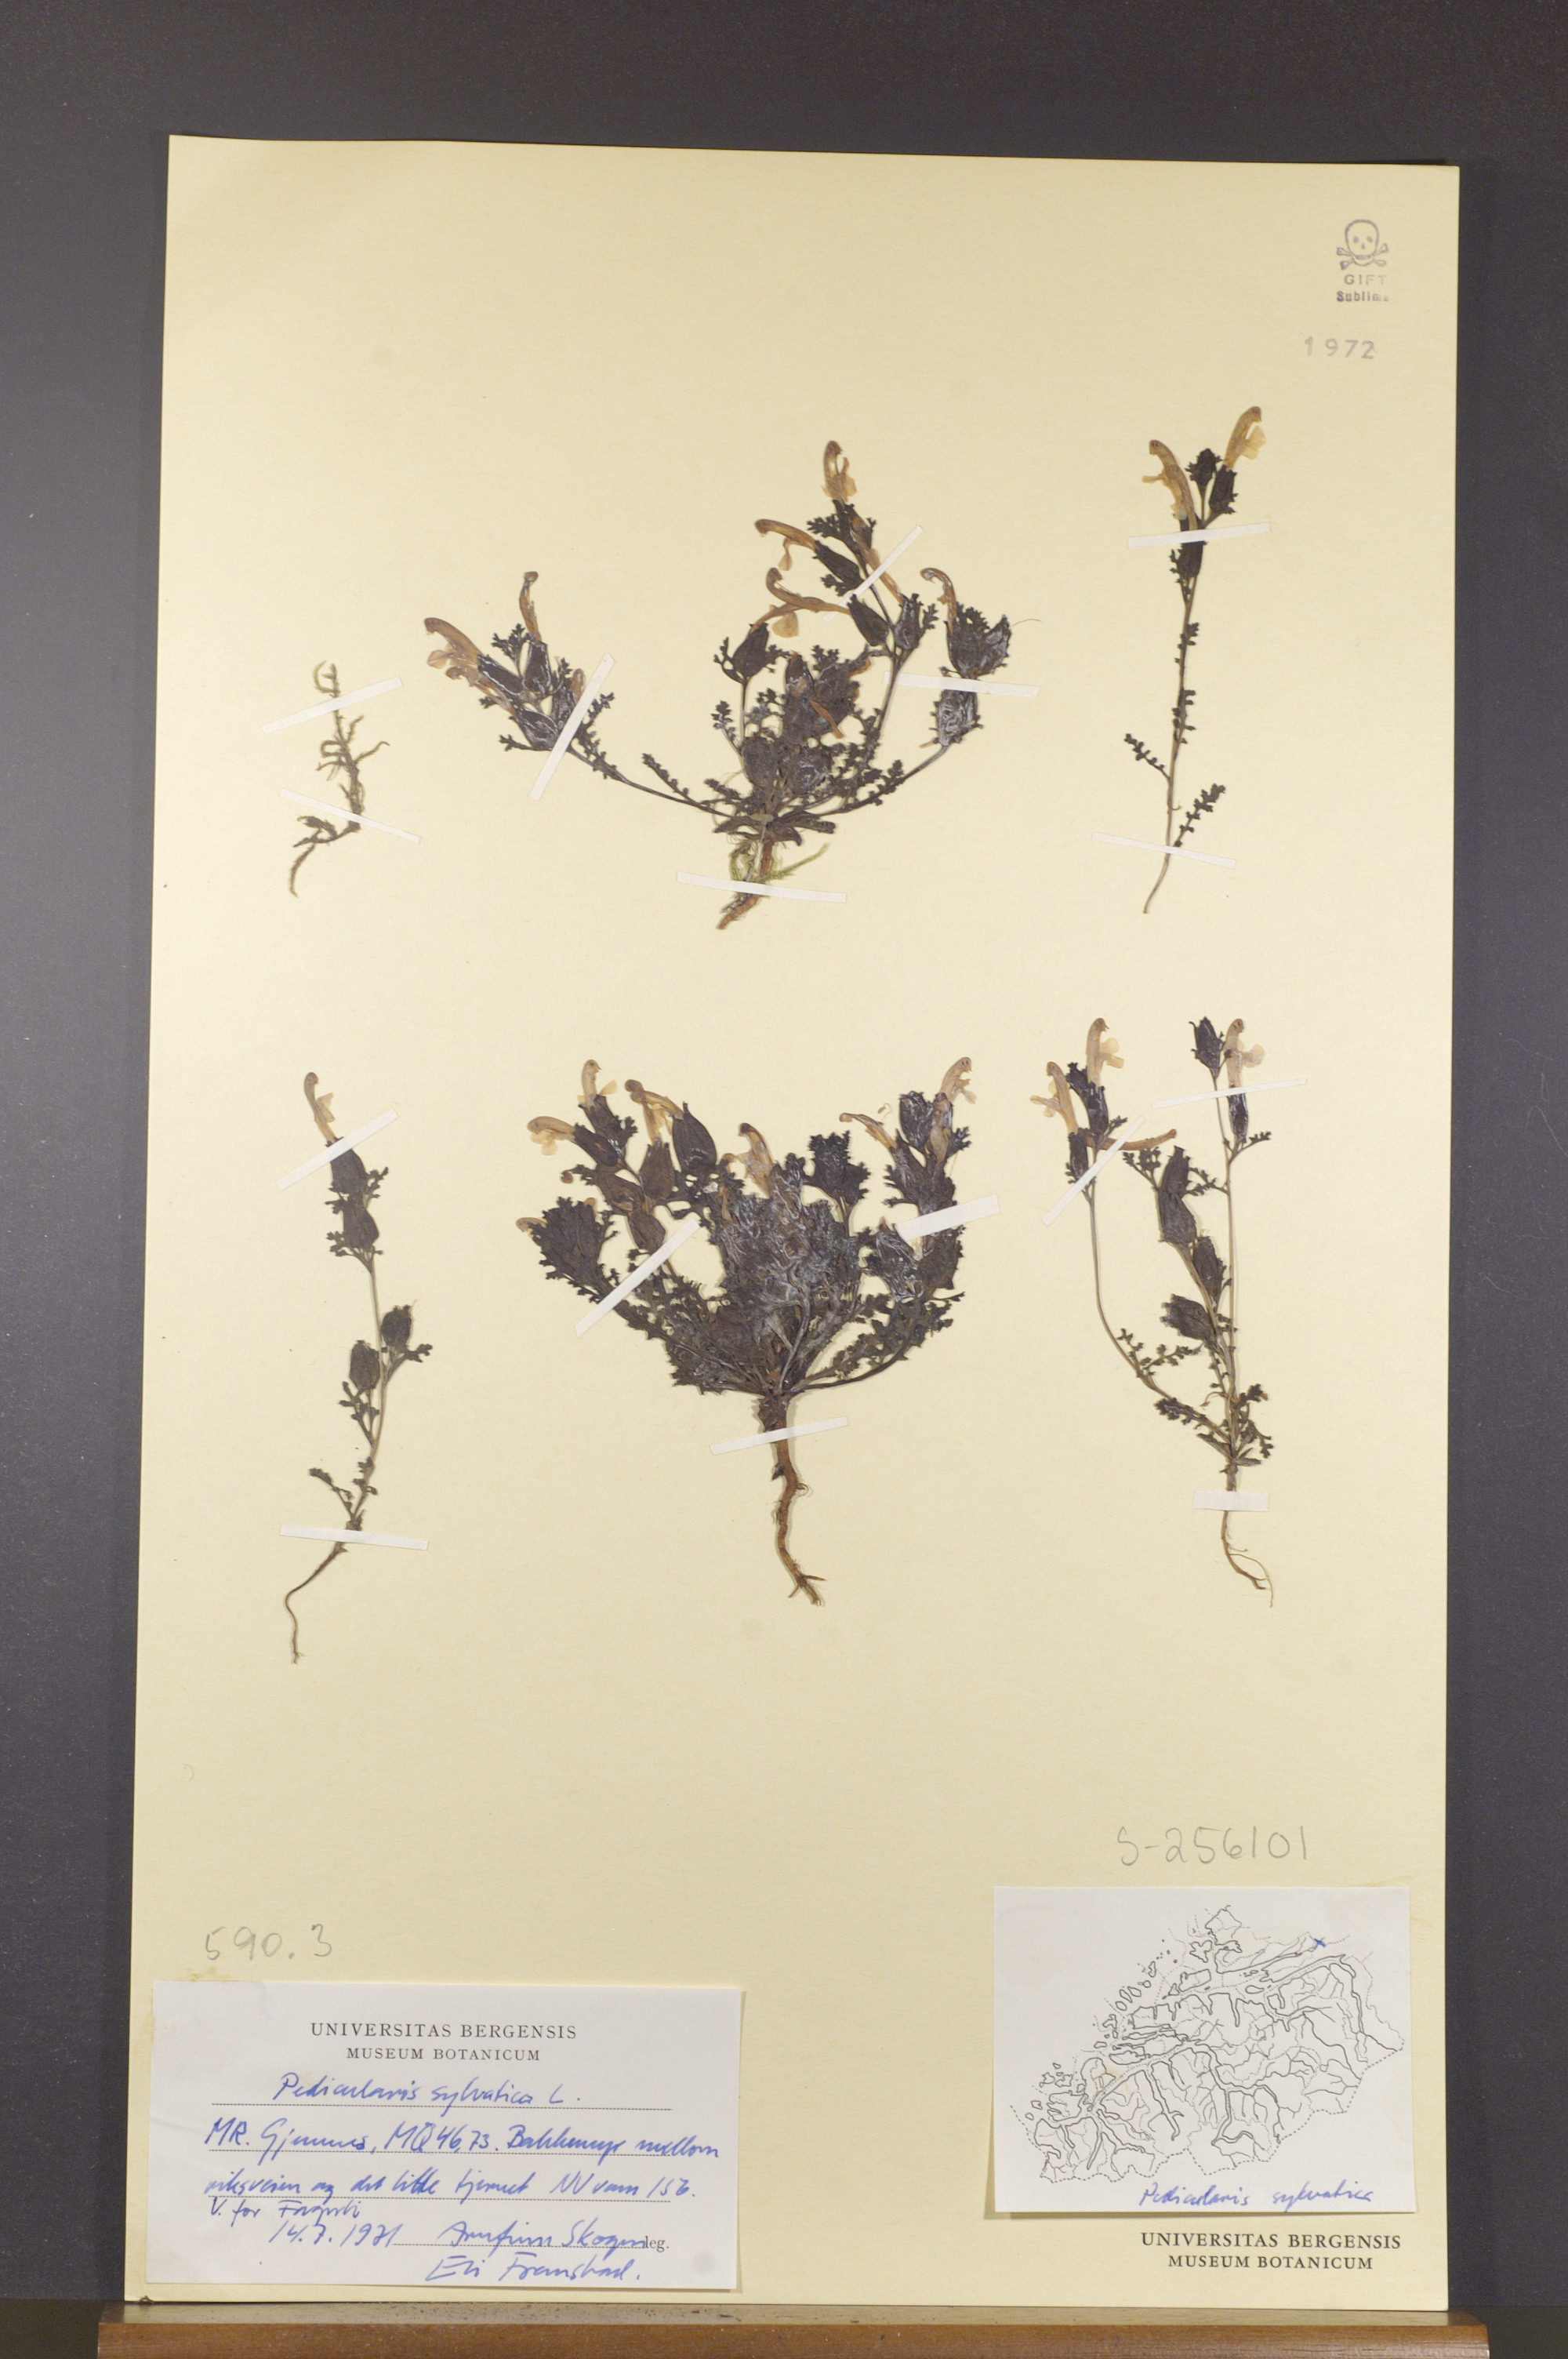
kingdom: Plantae
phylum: Tracheophyta
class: Magnoliopsida
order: Lamiales
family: Orobanchaceae
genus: Pedicularis
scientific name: Pedicularis sylvatica
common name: Lousewort
